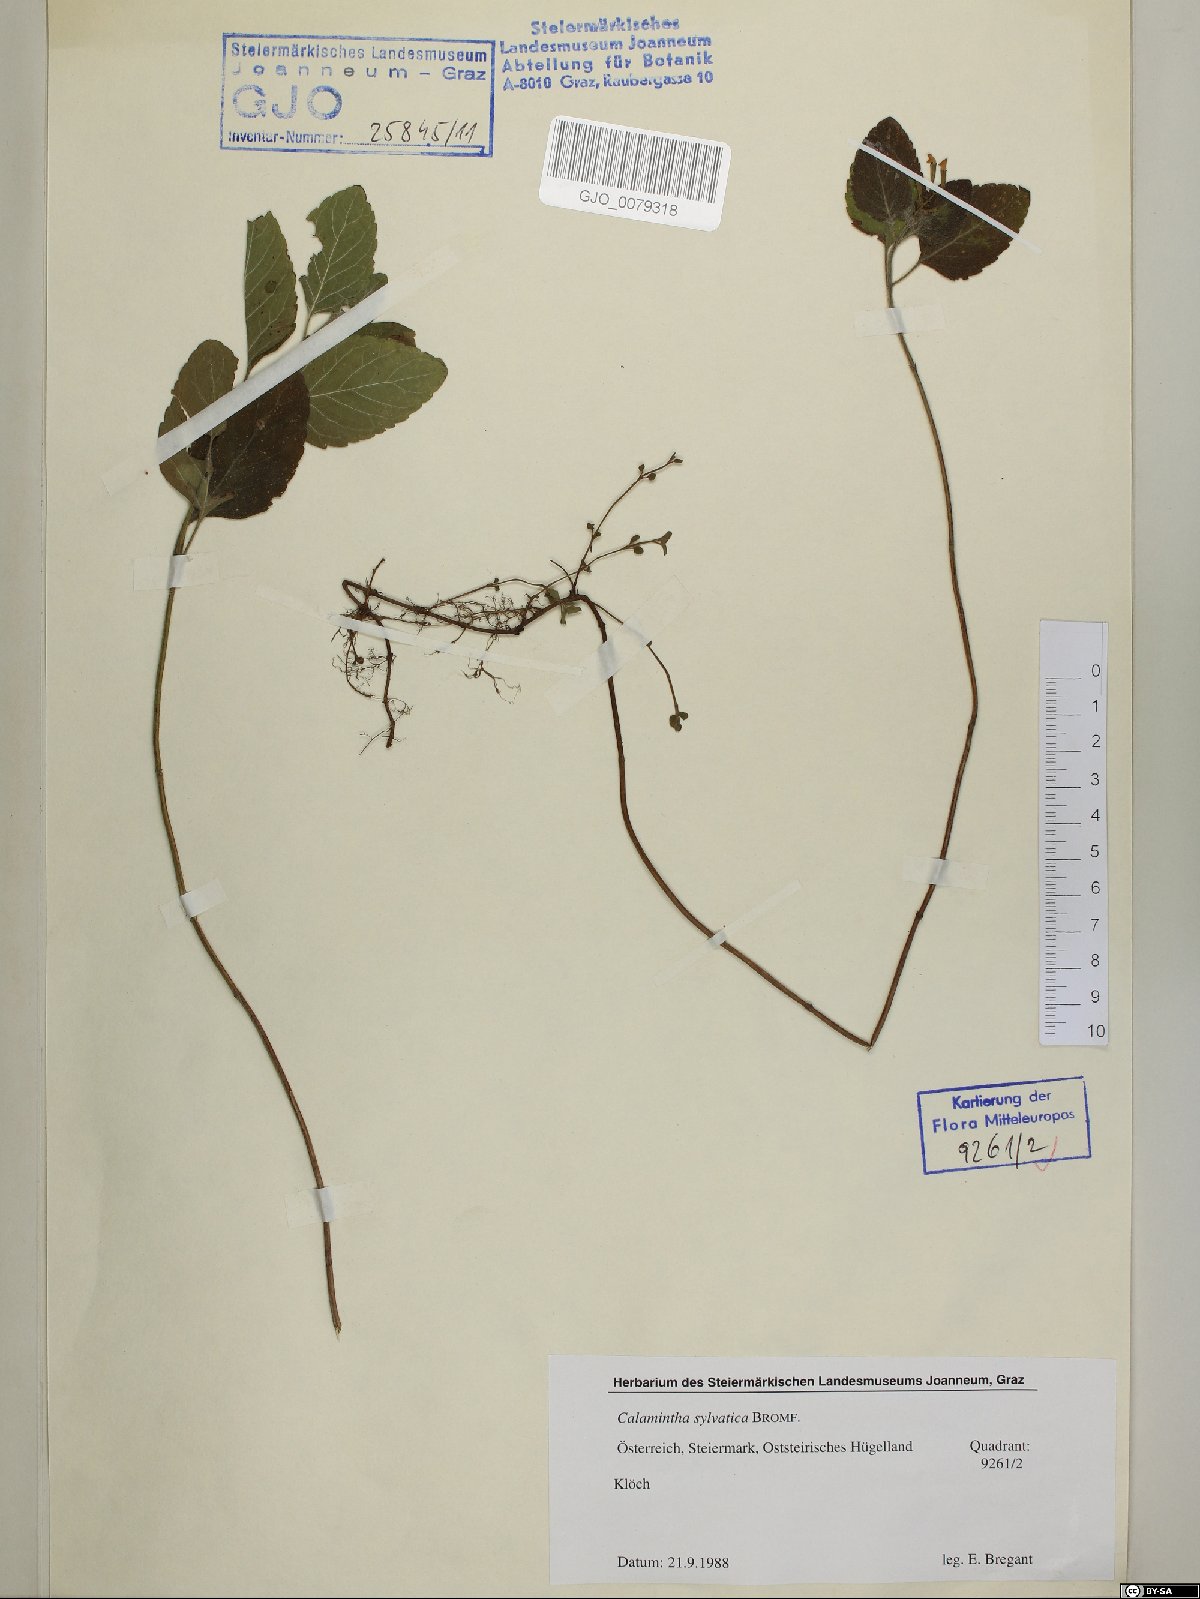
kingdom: Plantae
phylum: Tracheophyta
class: Magnoliopsida
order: Lamiales
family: Lamiaceae
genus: Clinopodium
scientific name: Clinopodium menthifolium
